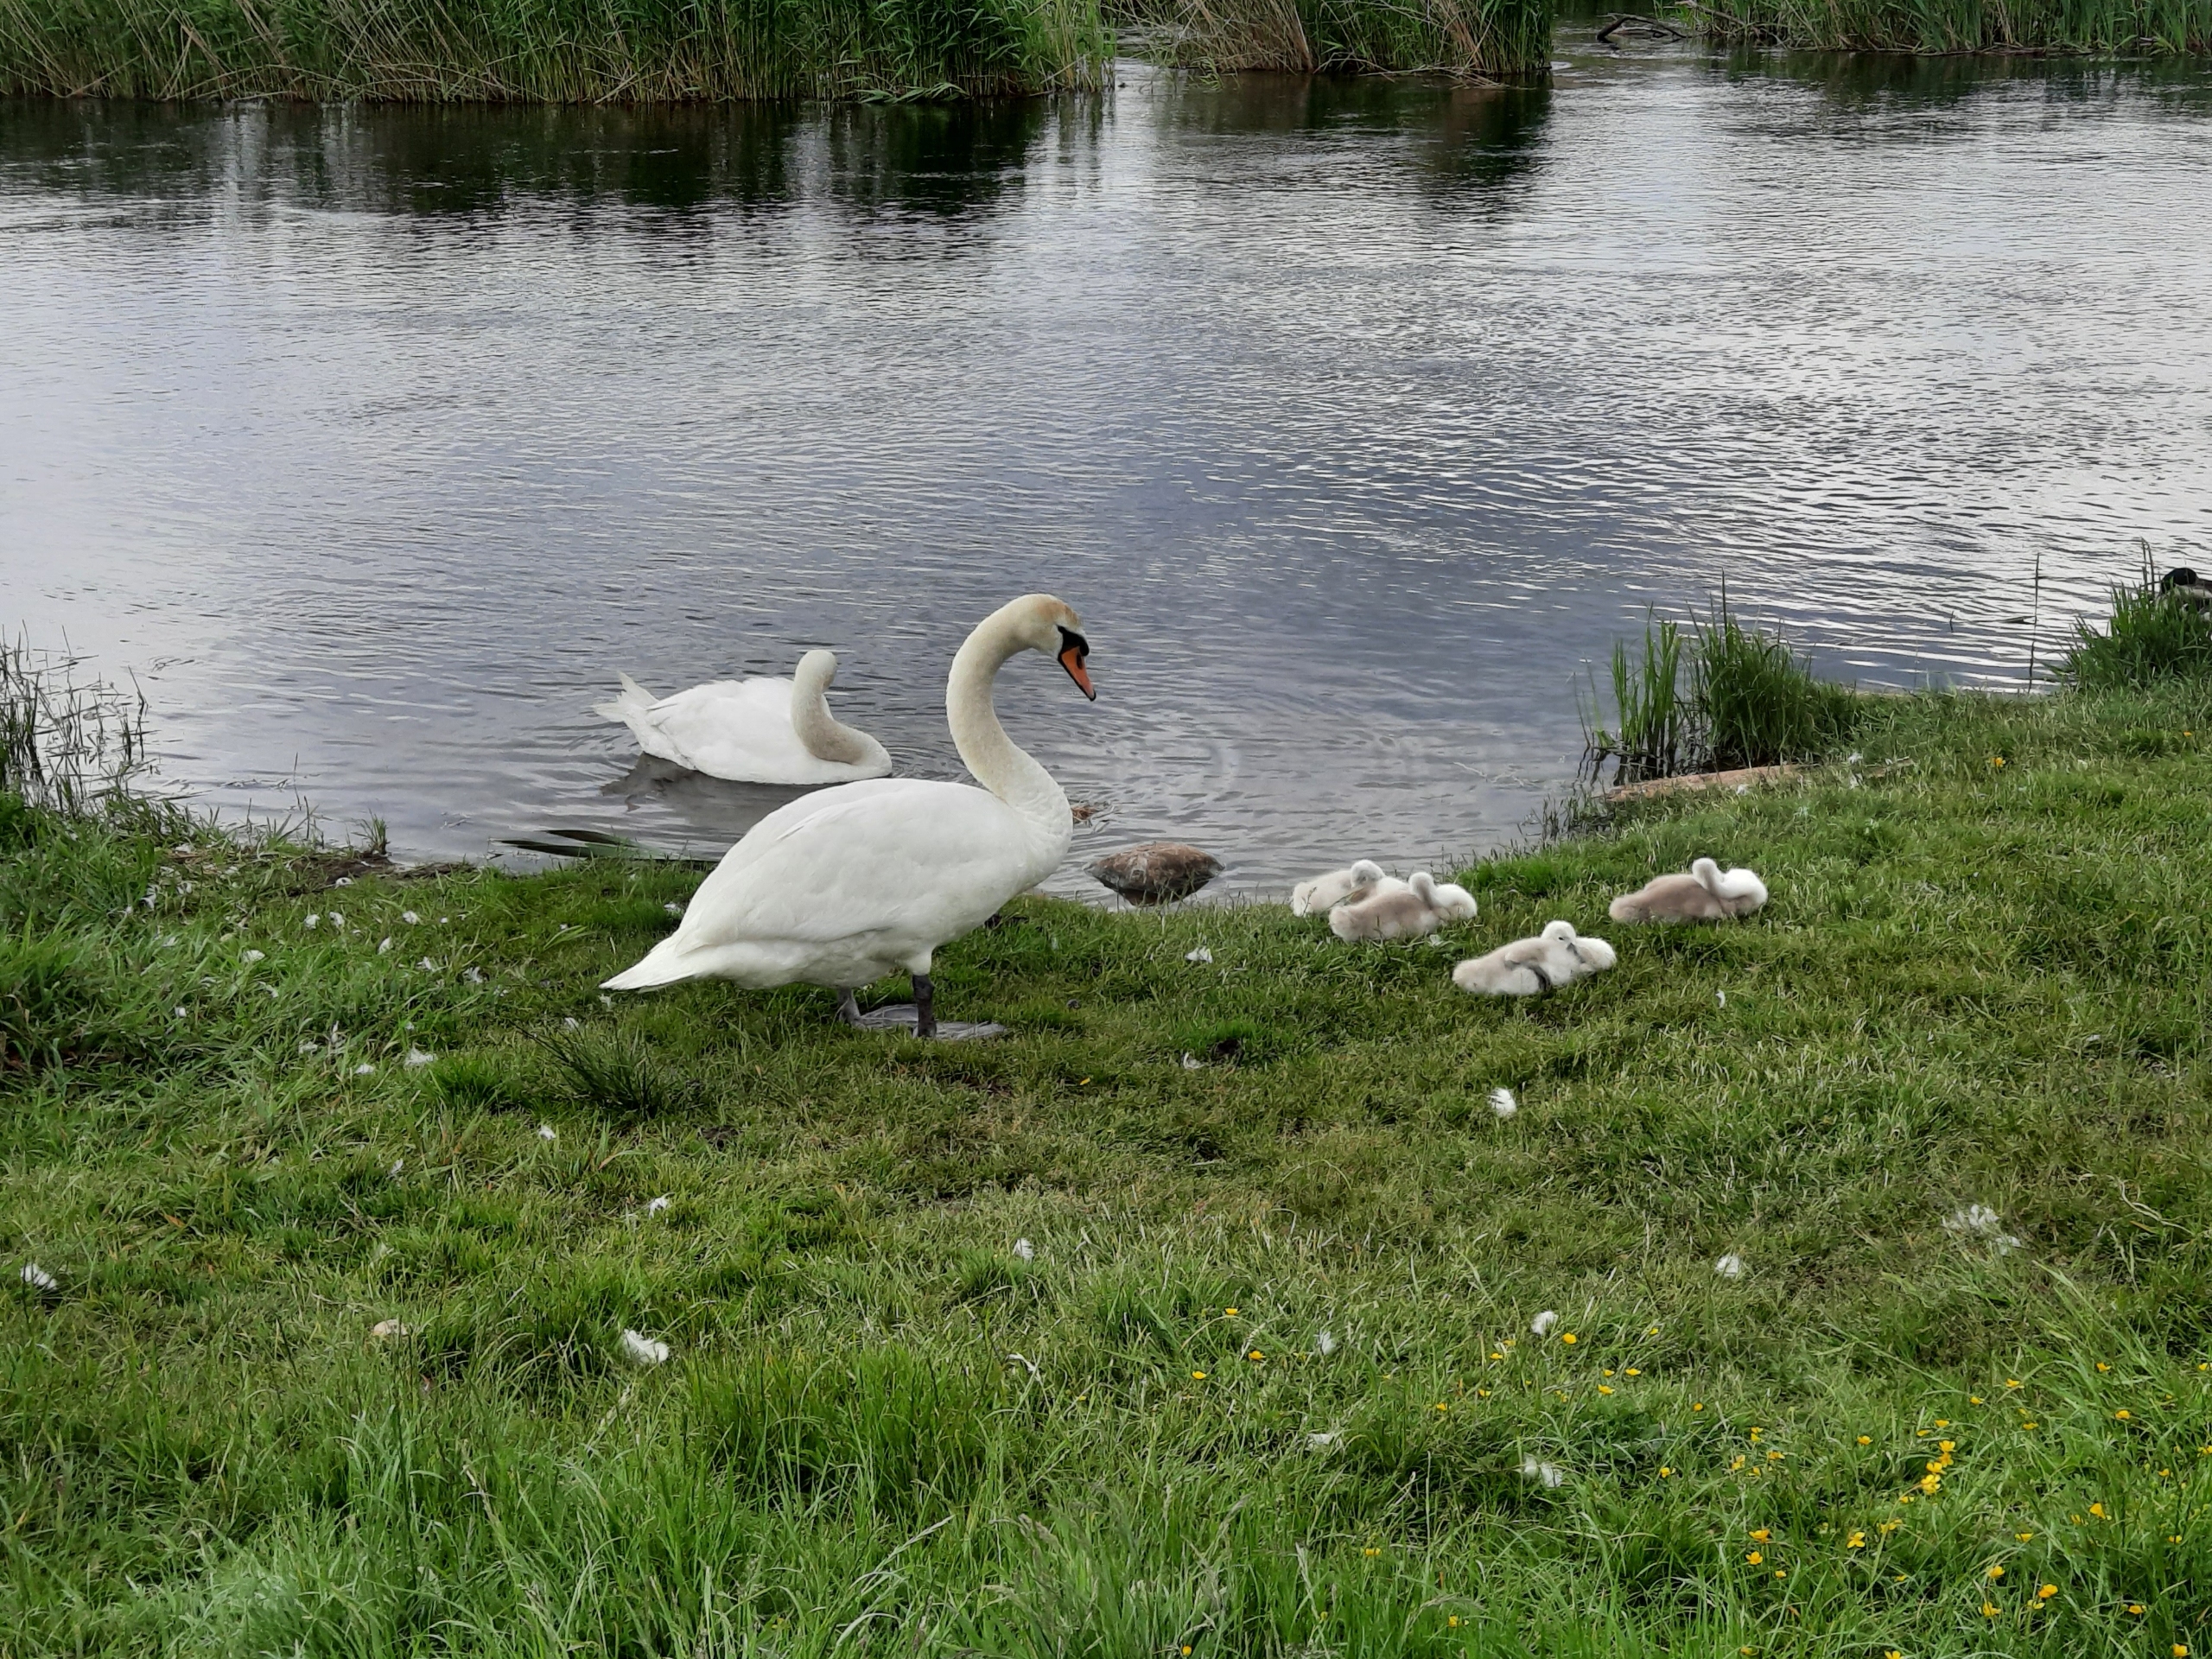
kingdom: Animalia
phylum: Chordata
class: Aves
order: Anseriformes
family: Anatidae
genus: Cygnus
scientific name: Cygnus olor
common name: Knopsvane
